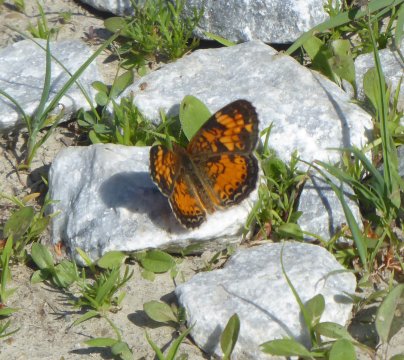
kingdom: Animalia
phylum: Arthropoda
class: Insecta
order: Lepidoptera
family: Nymphalidae
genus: Phyciodes
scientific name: Phyciodes
